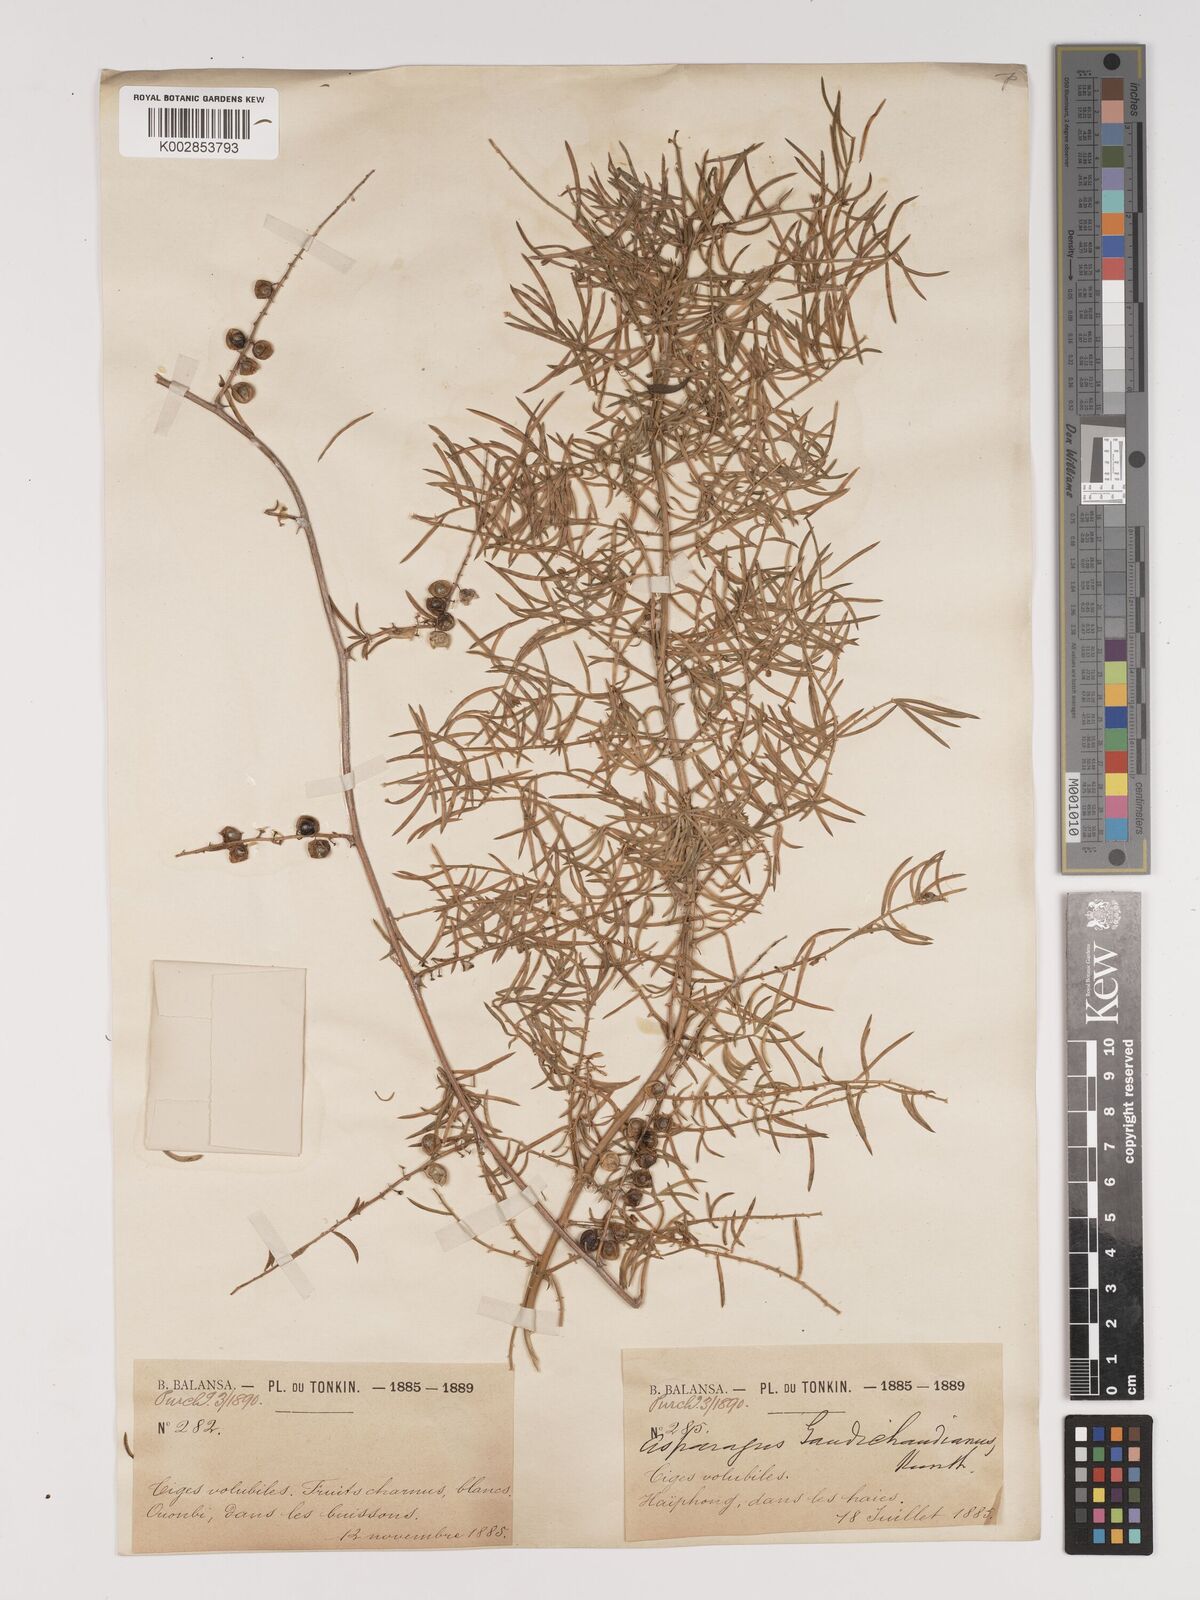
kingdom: Plantae
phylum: Tracheophyta
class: Liliopsida
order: Asparagales
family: Asparagaceae
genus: Asparagus
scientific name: Asparagus cochinchinensis
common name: Chinese asparagus
